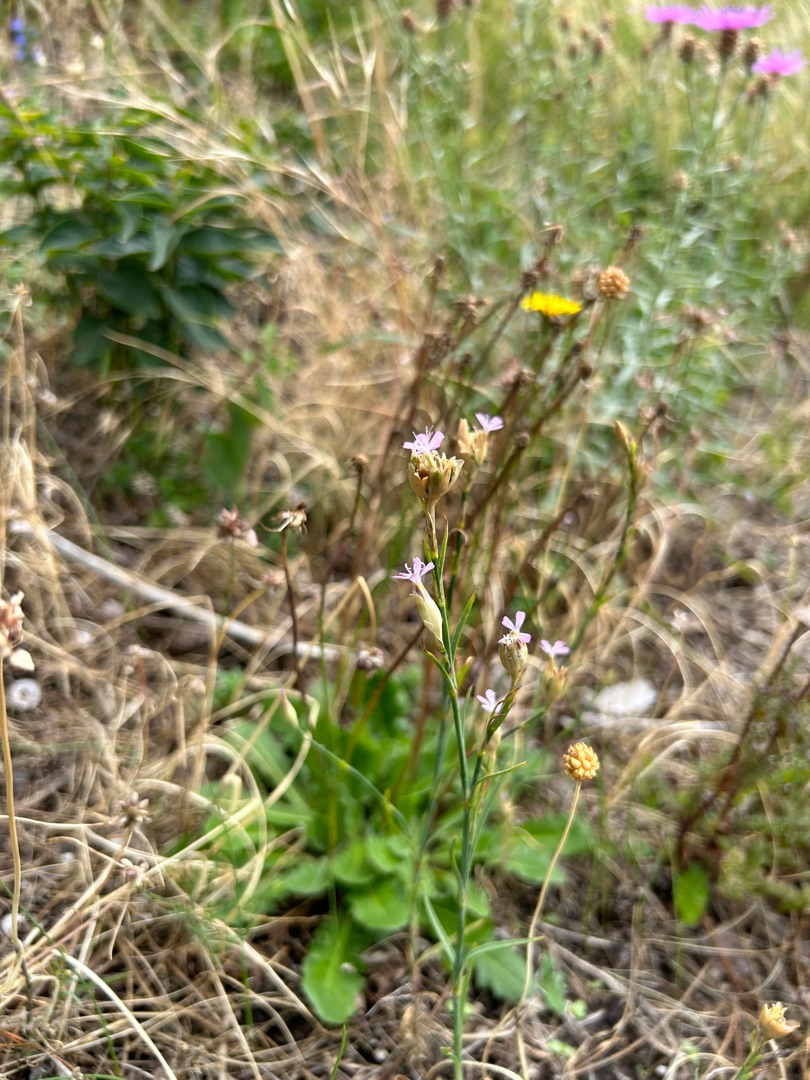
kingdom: Plantae
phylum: Tracheophyta
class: Magnoliopsida
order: Caryophyllales
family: Caryophyllaceae
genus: Petrorhagia
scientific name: Petrorhagia prolifera
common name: Knopnellike
